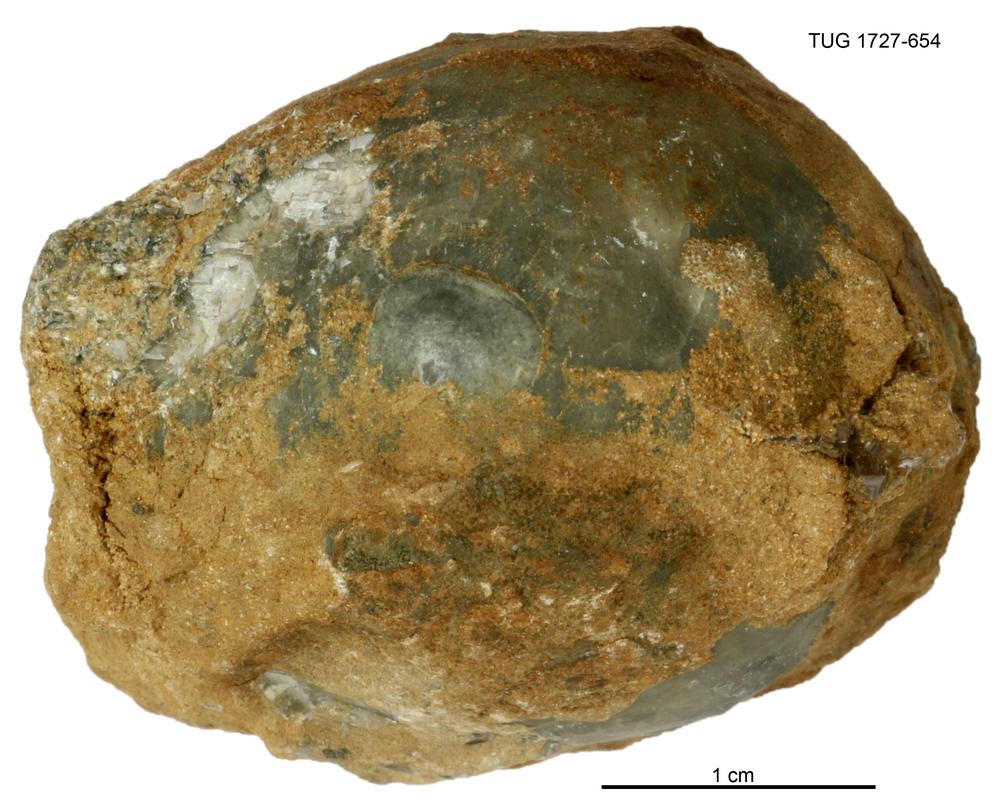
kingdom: Animalia
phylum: Echinodermata
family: Echinosphaeritidae
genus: Echinosphaerites
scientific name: Echinosphaerites Echinus aurantium
